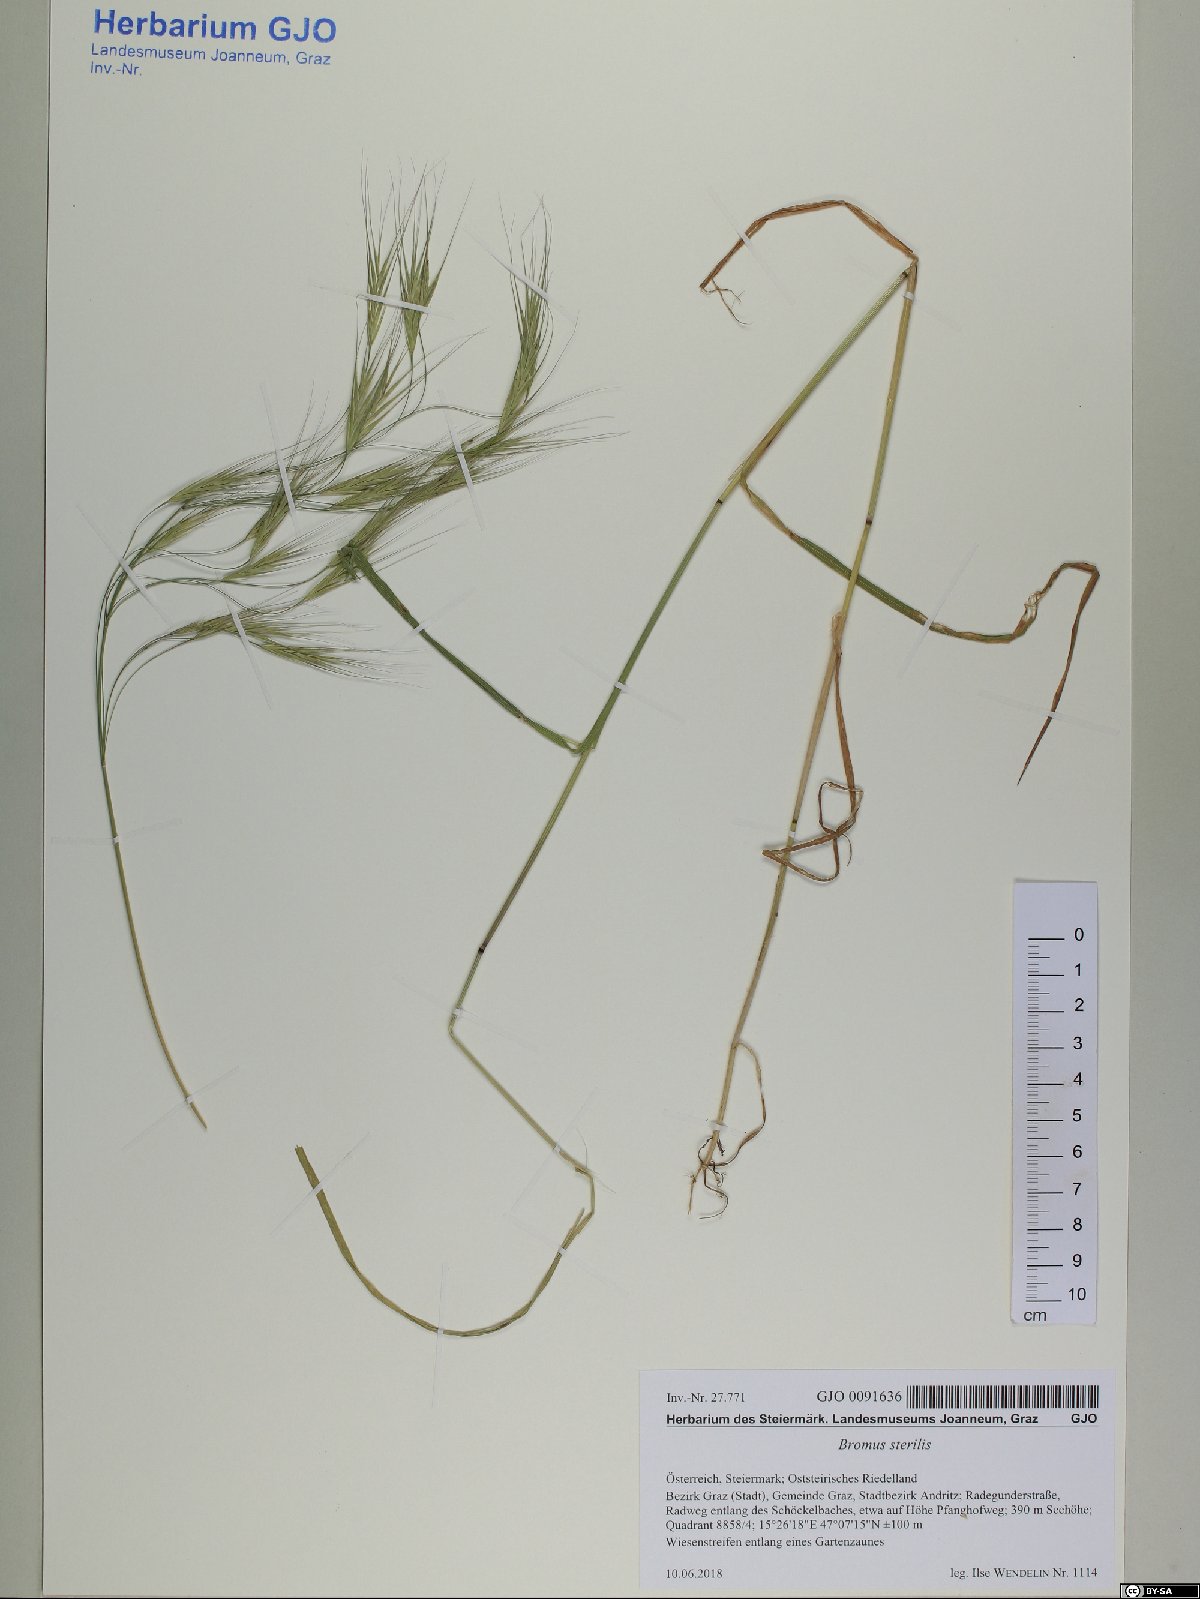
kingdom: Plantae
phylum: Tracheophyta
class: Liliopsida
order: Poales
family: Poaceae
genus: Bromus
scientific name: Bromus sterilis
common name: Poverty brome
